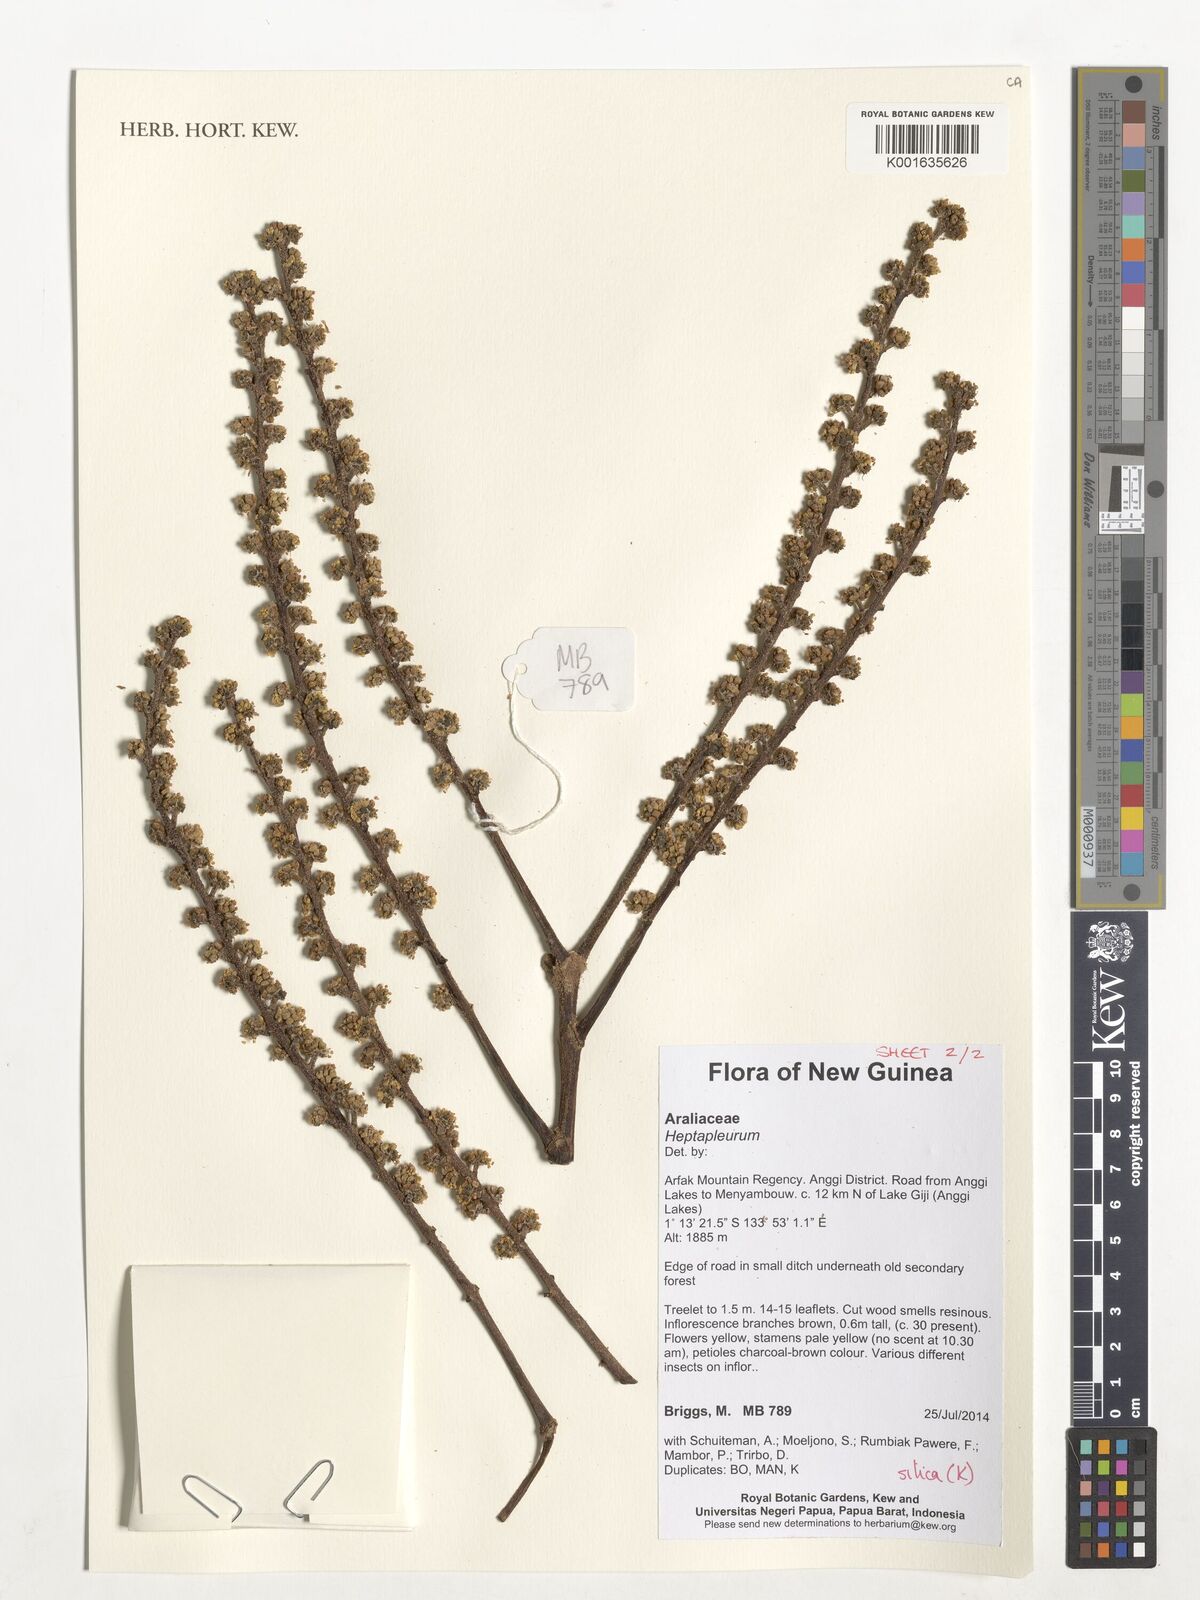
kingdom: Plantae
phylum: Tracheophyta
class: Magnoliopsida
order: Apiales
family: Araliaceae
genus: Heptapleurum
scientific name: Heptapleurum
